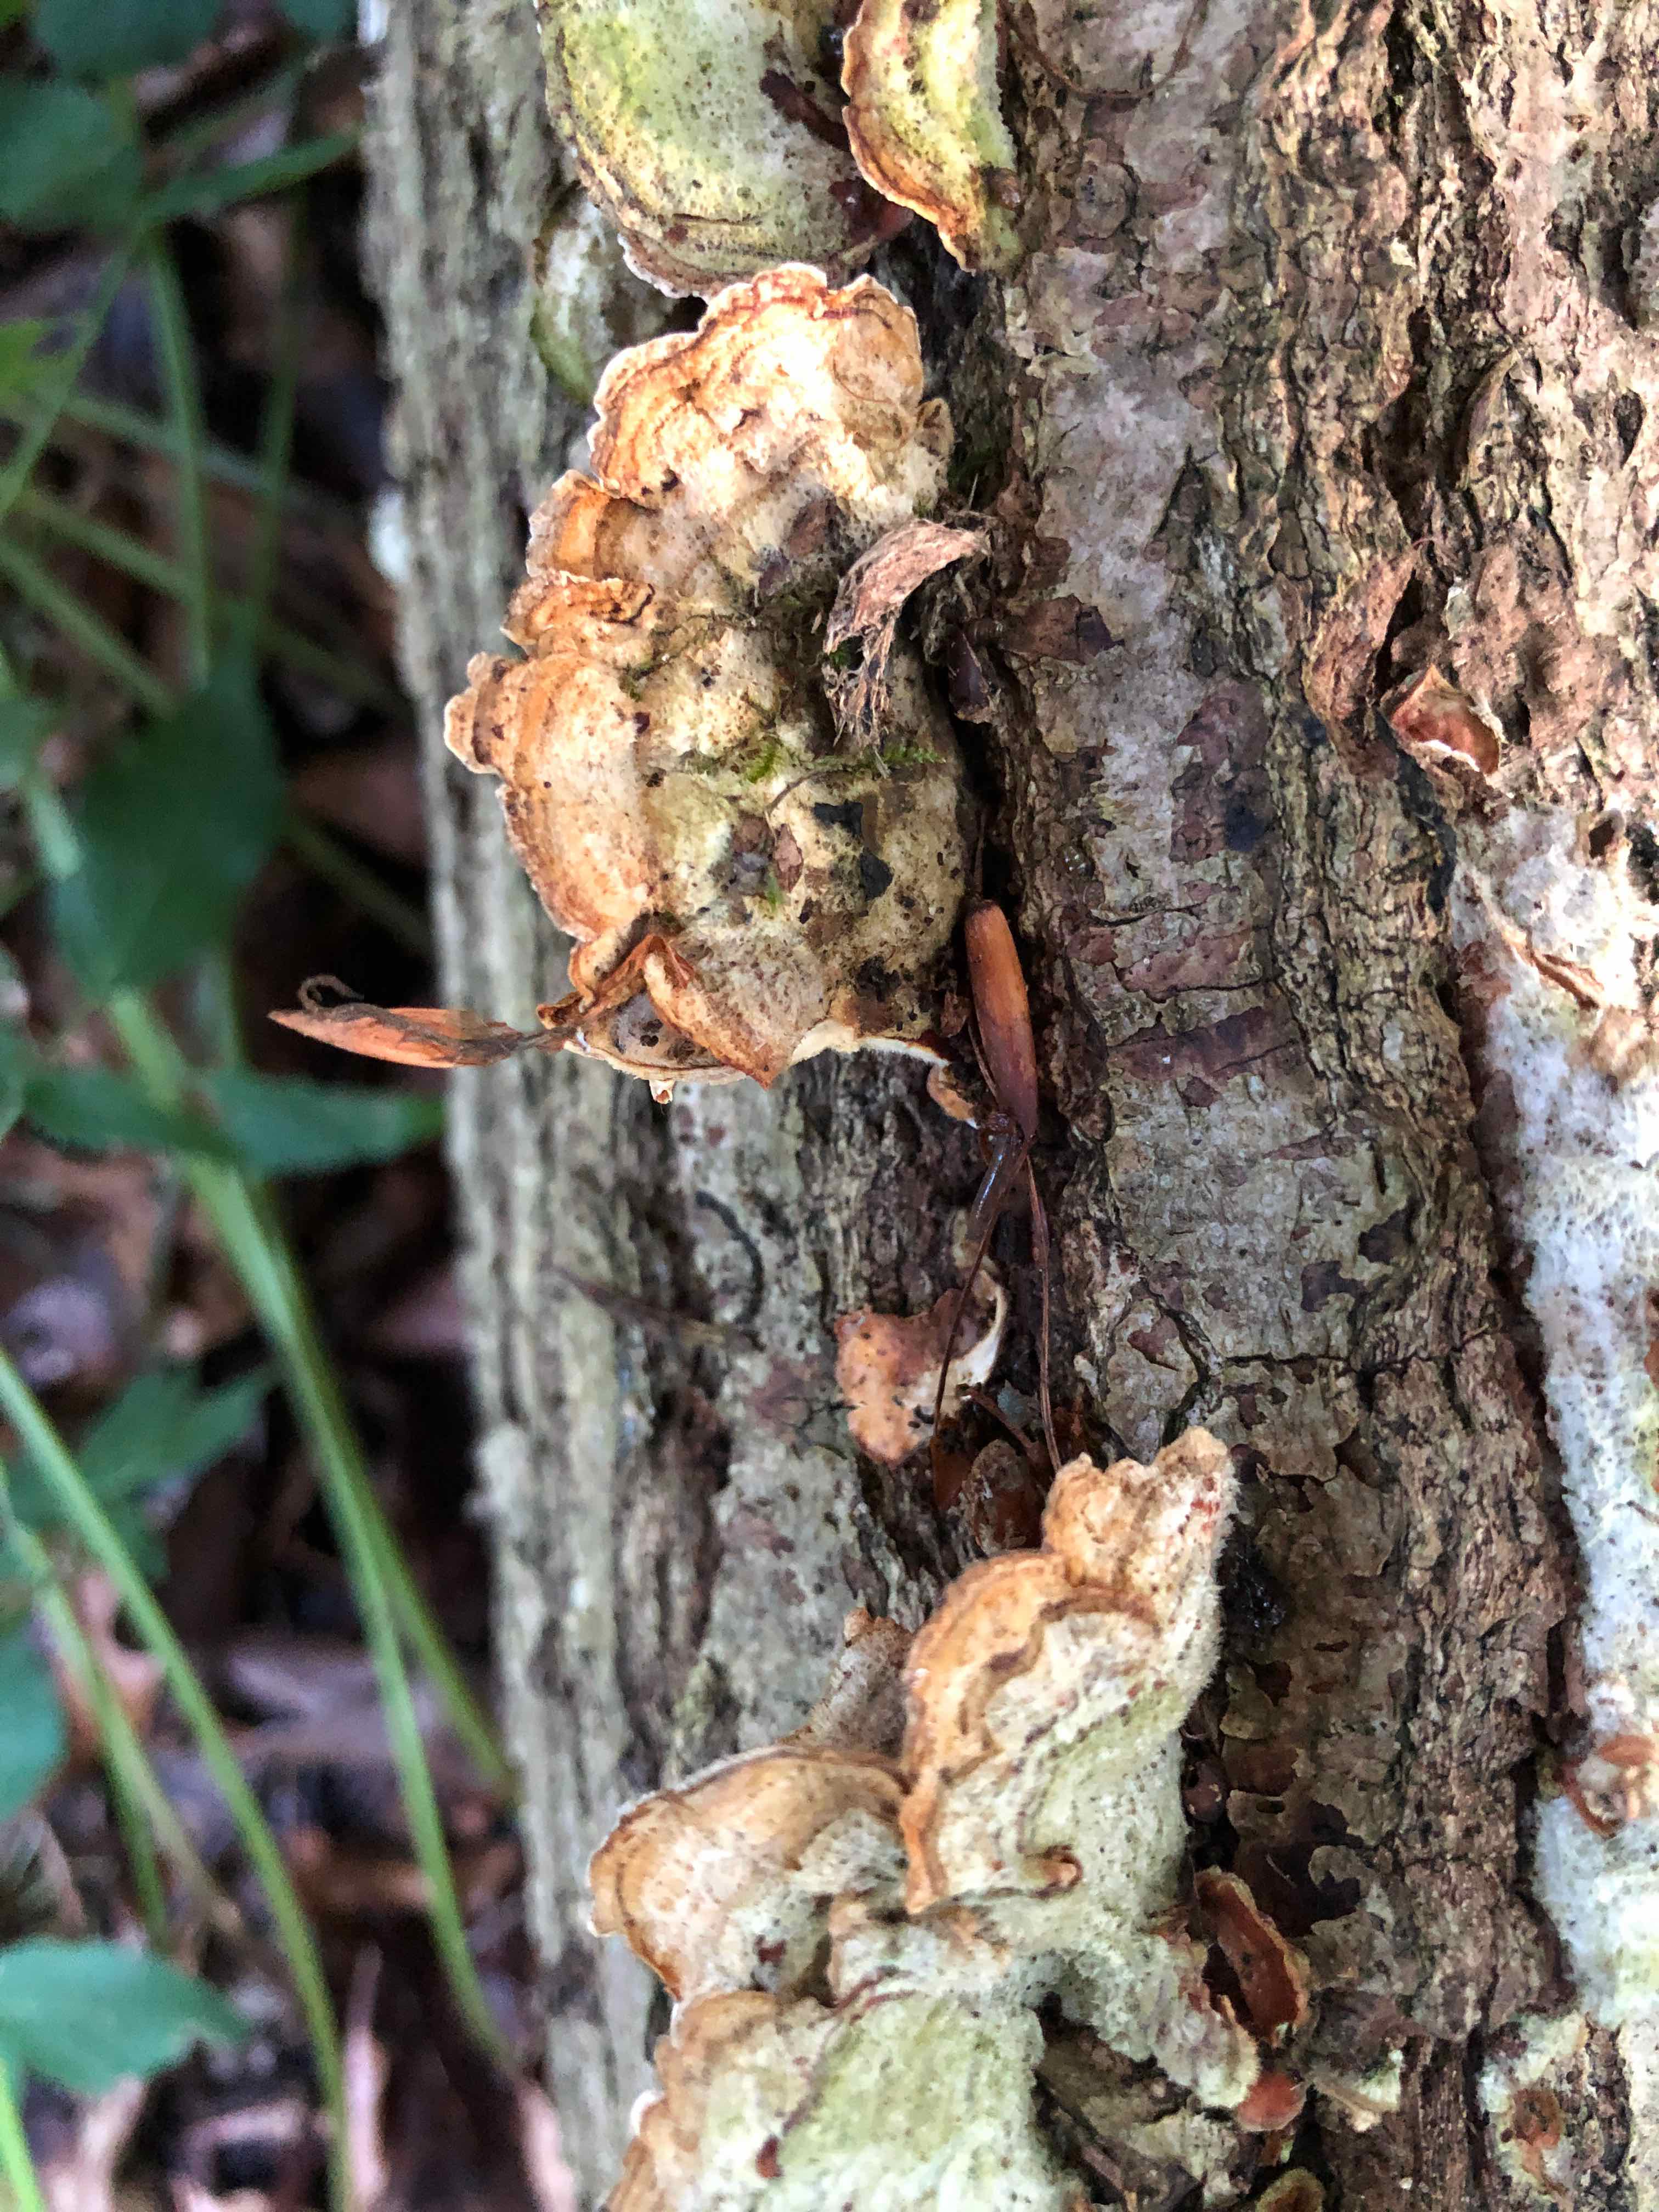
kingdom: Fungi
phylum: Basidiomycota
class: Agaricomycetes
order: Russulales
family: Stereaceae
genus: Stereum
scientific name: Stereum hirsutum
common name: håret lædersvamp
